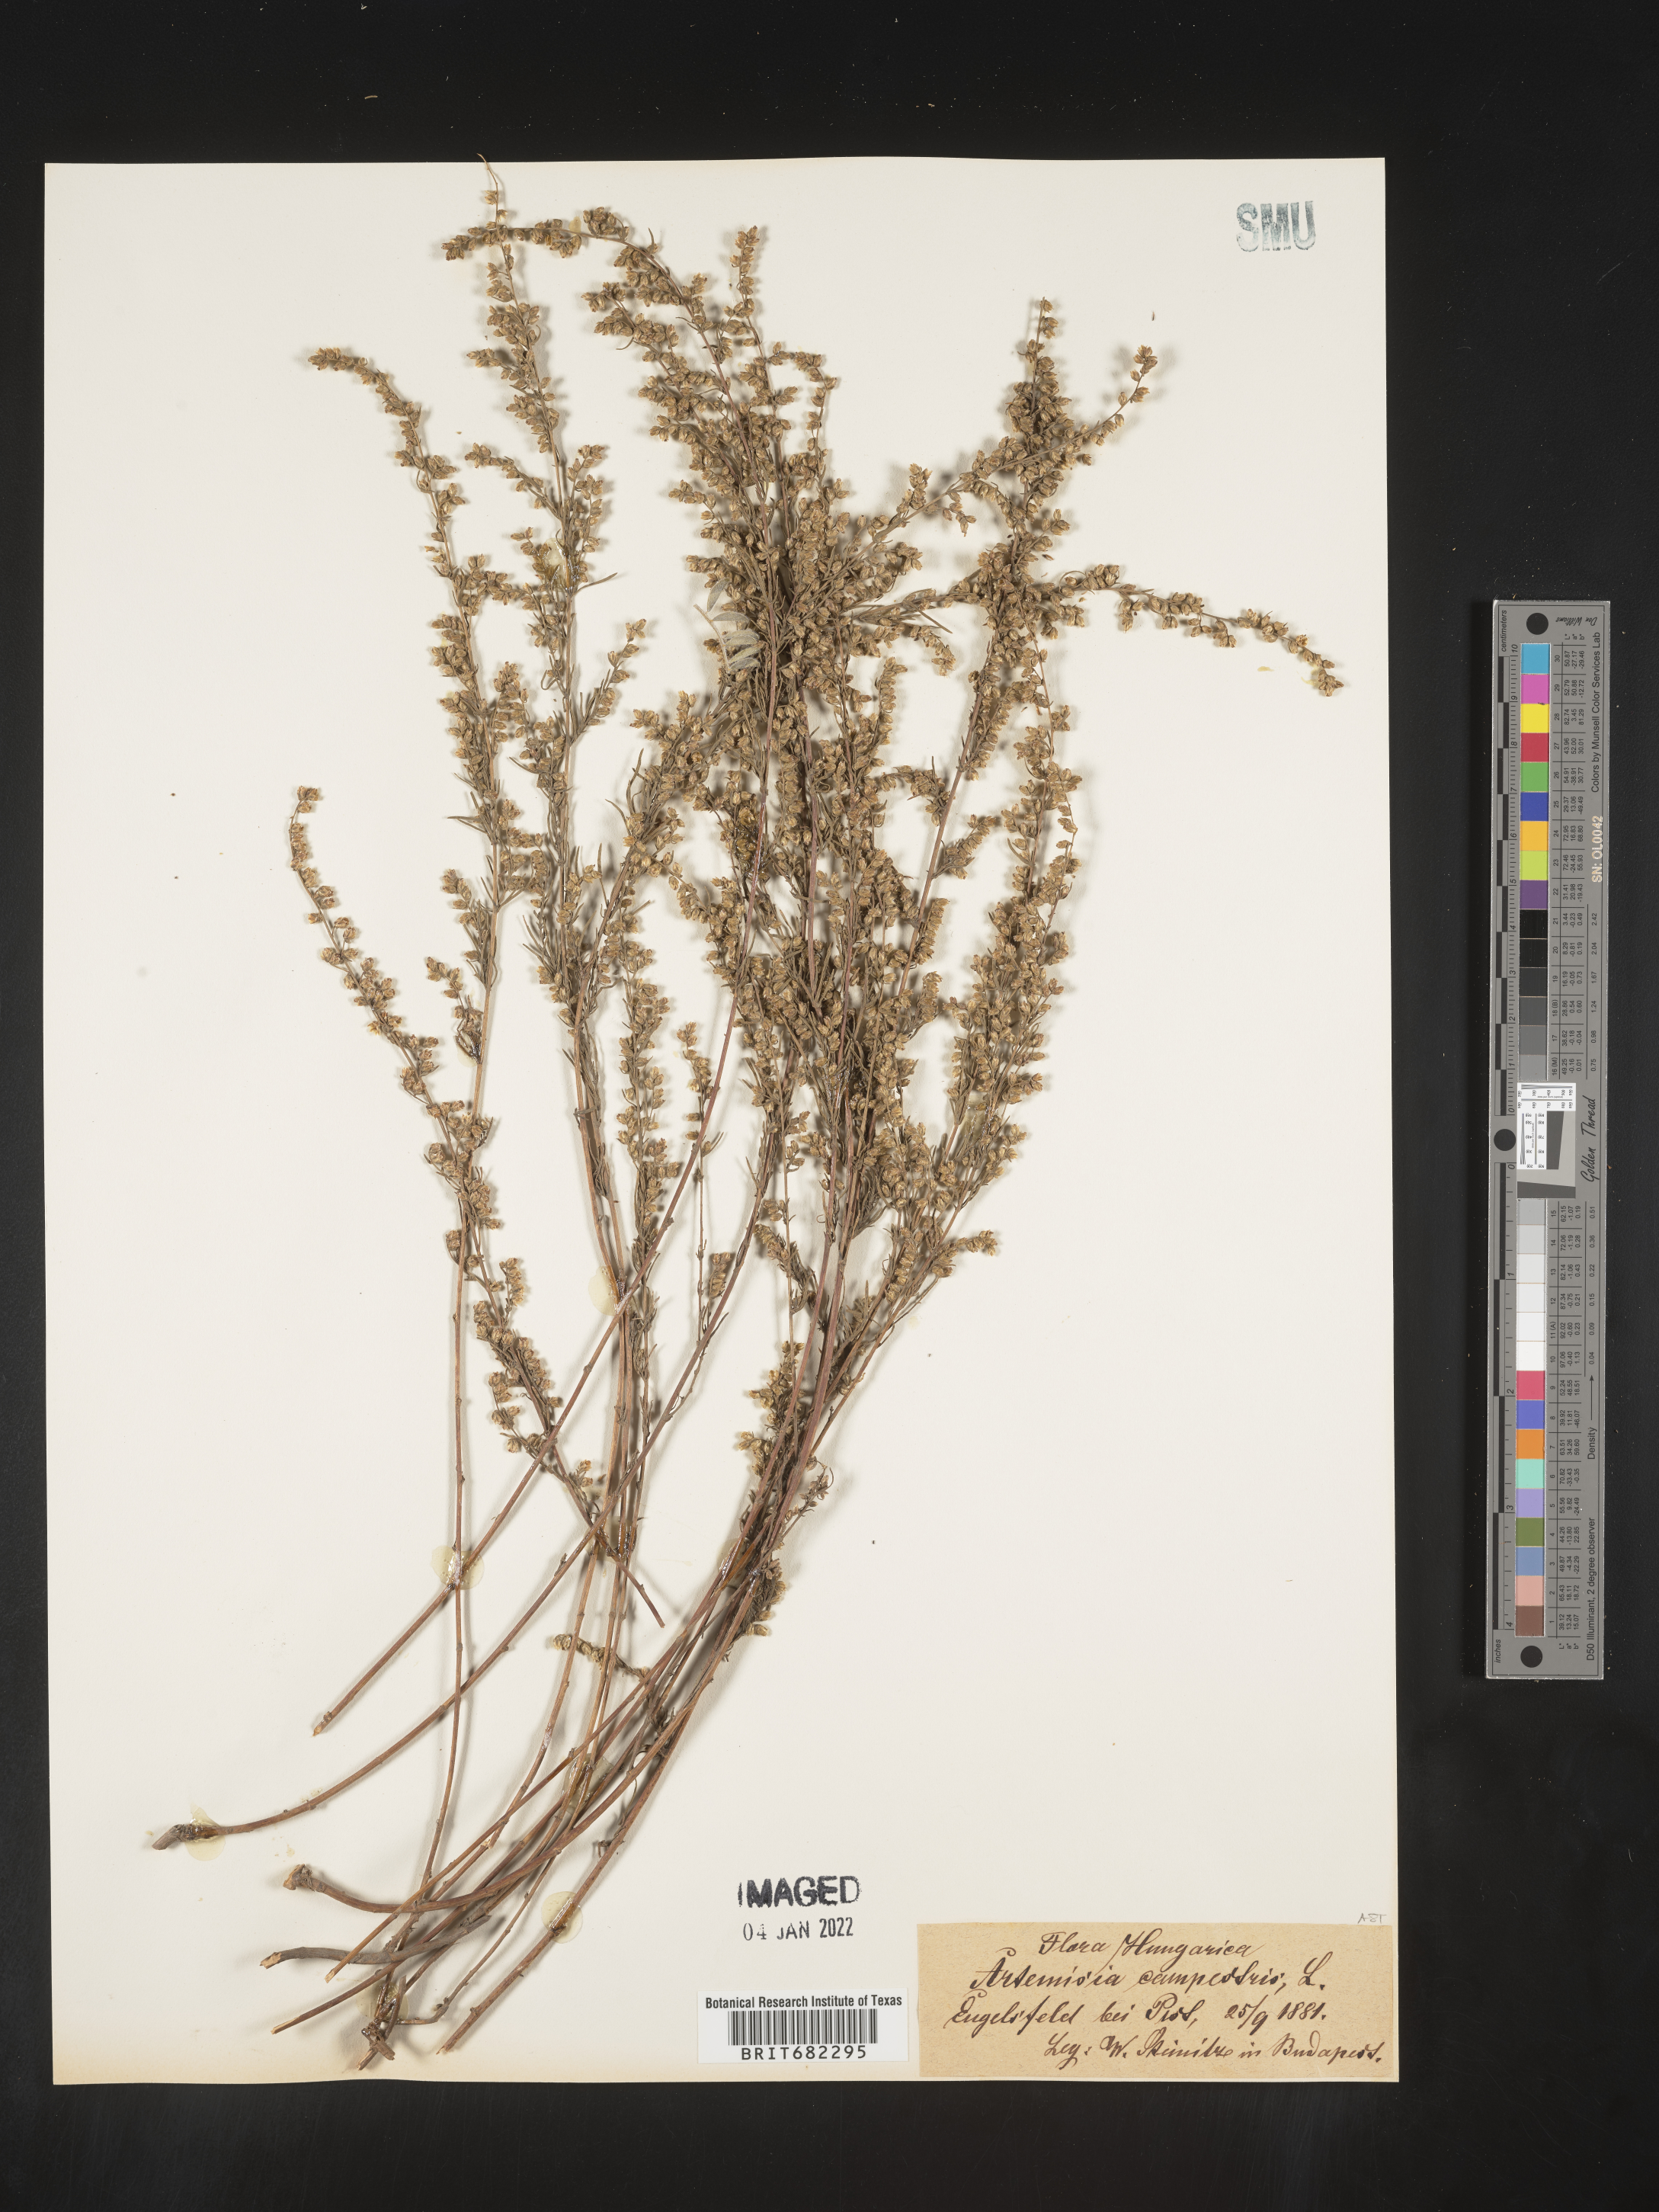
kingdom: Plantae
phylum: Tracheophyta
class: Magnoliopsida
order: Asterales
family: Asteraceae
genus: Artemisia
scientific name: Artemisia campestris
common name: Field wormwood
